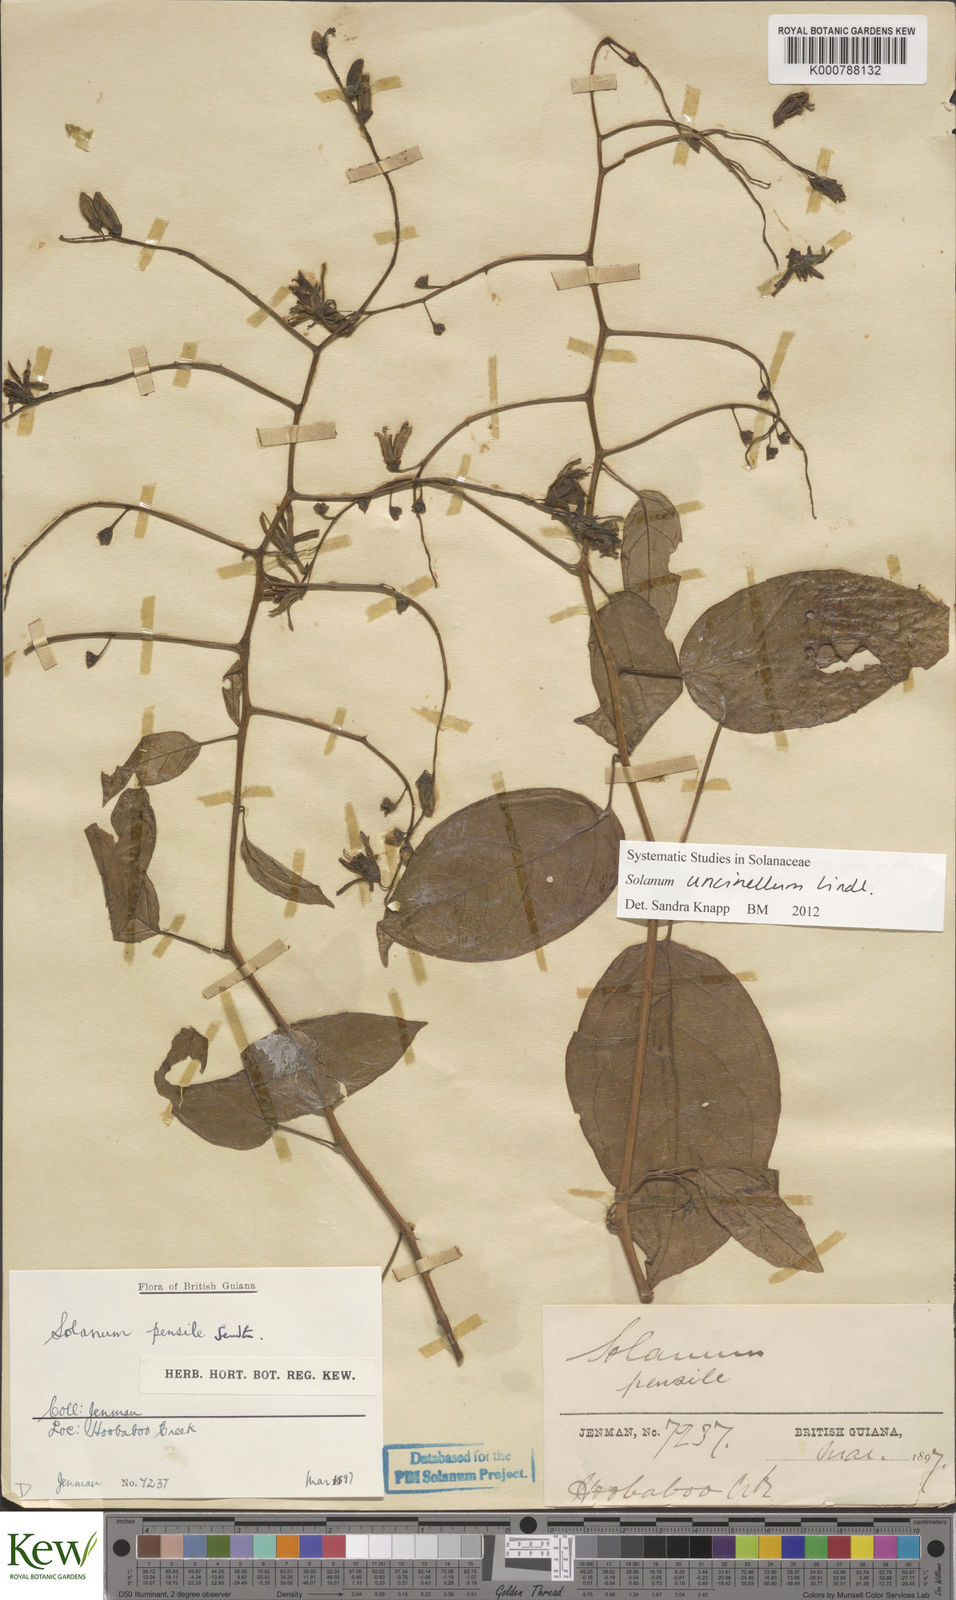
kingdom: Plantae
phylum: Tracheophyta
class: Magnoliopsida
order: Solanales
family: Solanaceae
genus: Solanum
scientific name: Solanum uncinellum
